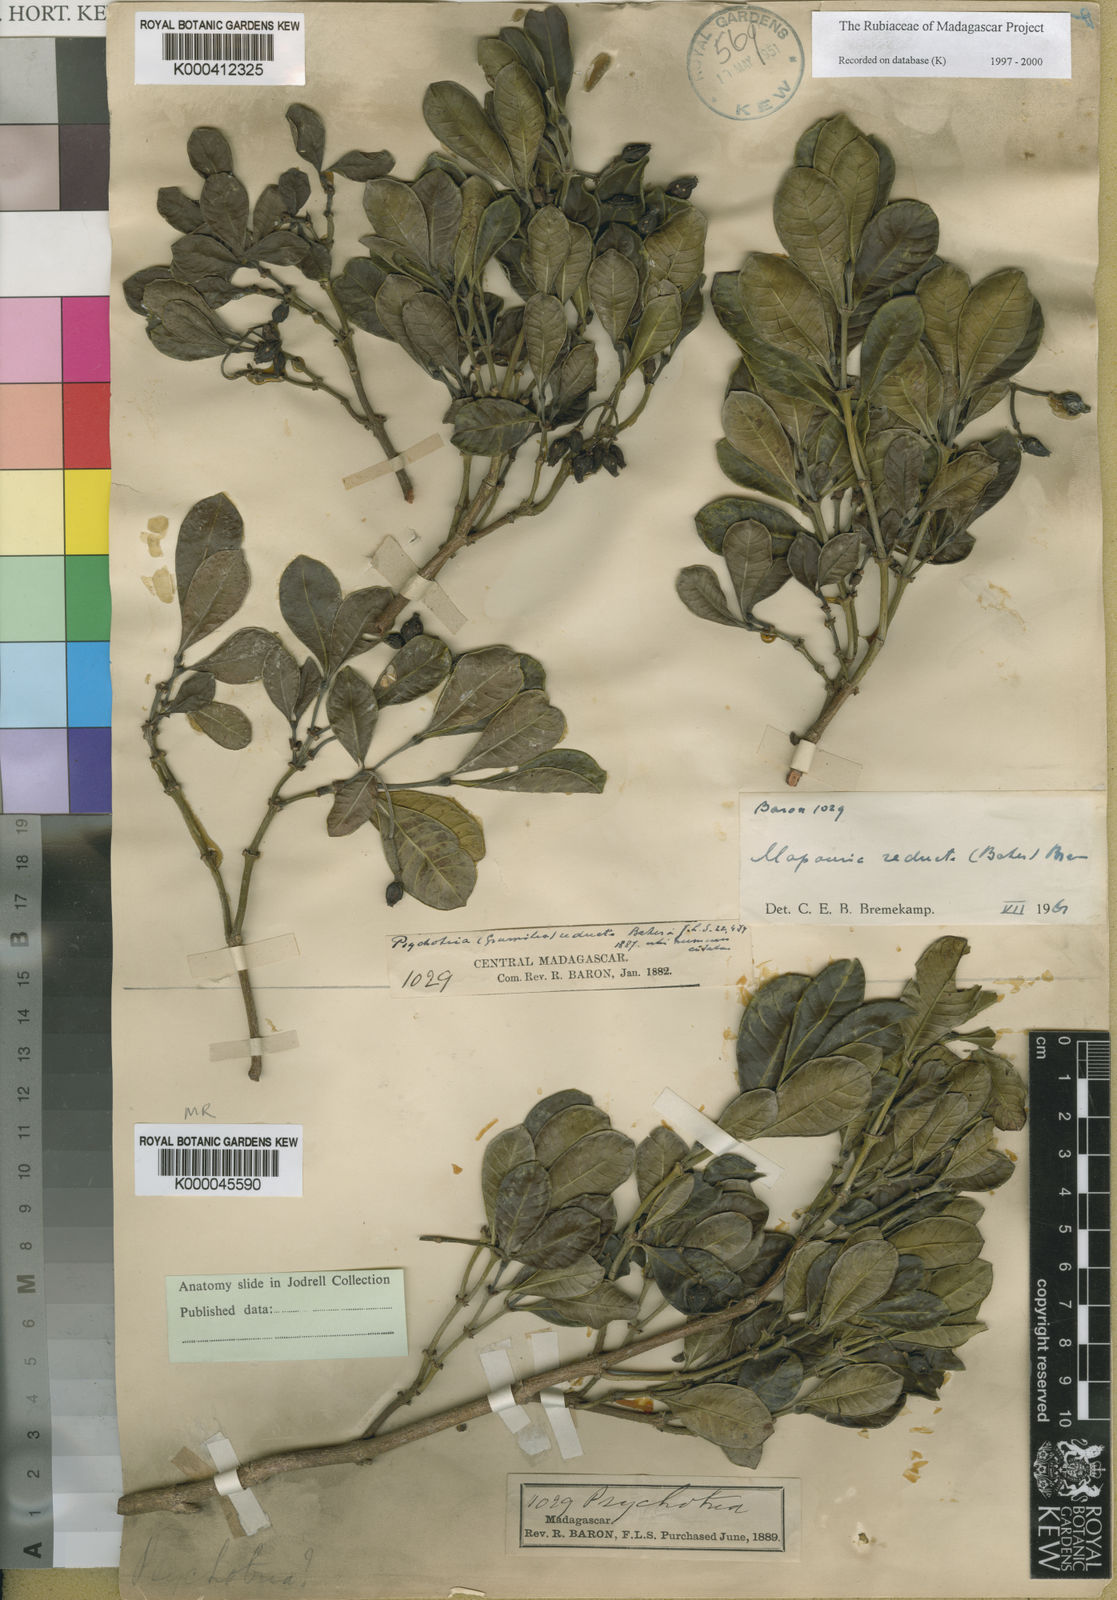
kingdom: Plantae
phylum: Tracheophyta
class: Magnoliopsida
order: Gentianales
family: Rubiaceae
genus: Psychotria
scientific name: Psychotria reducta
